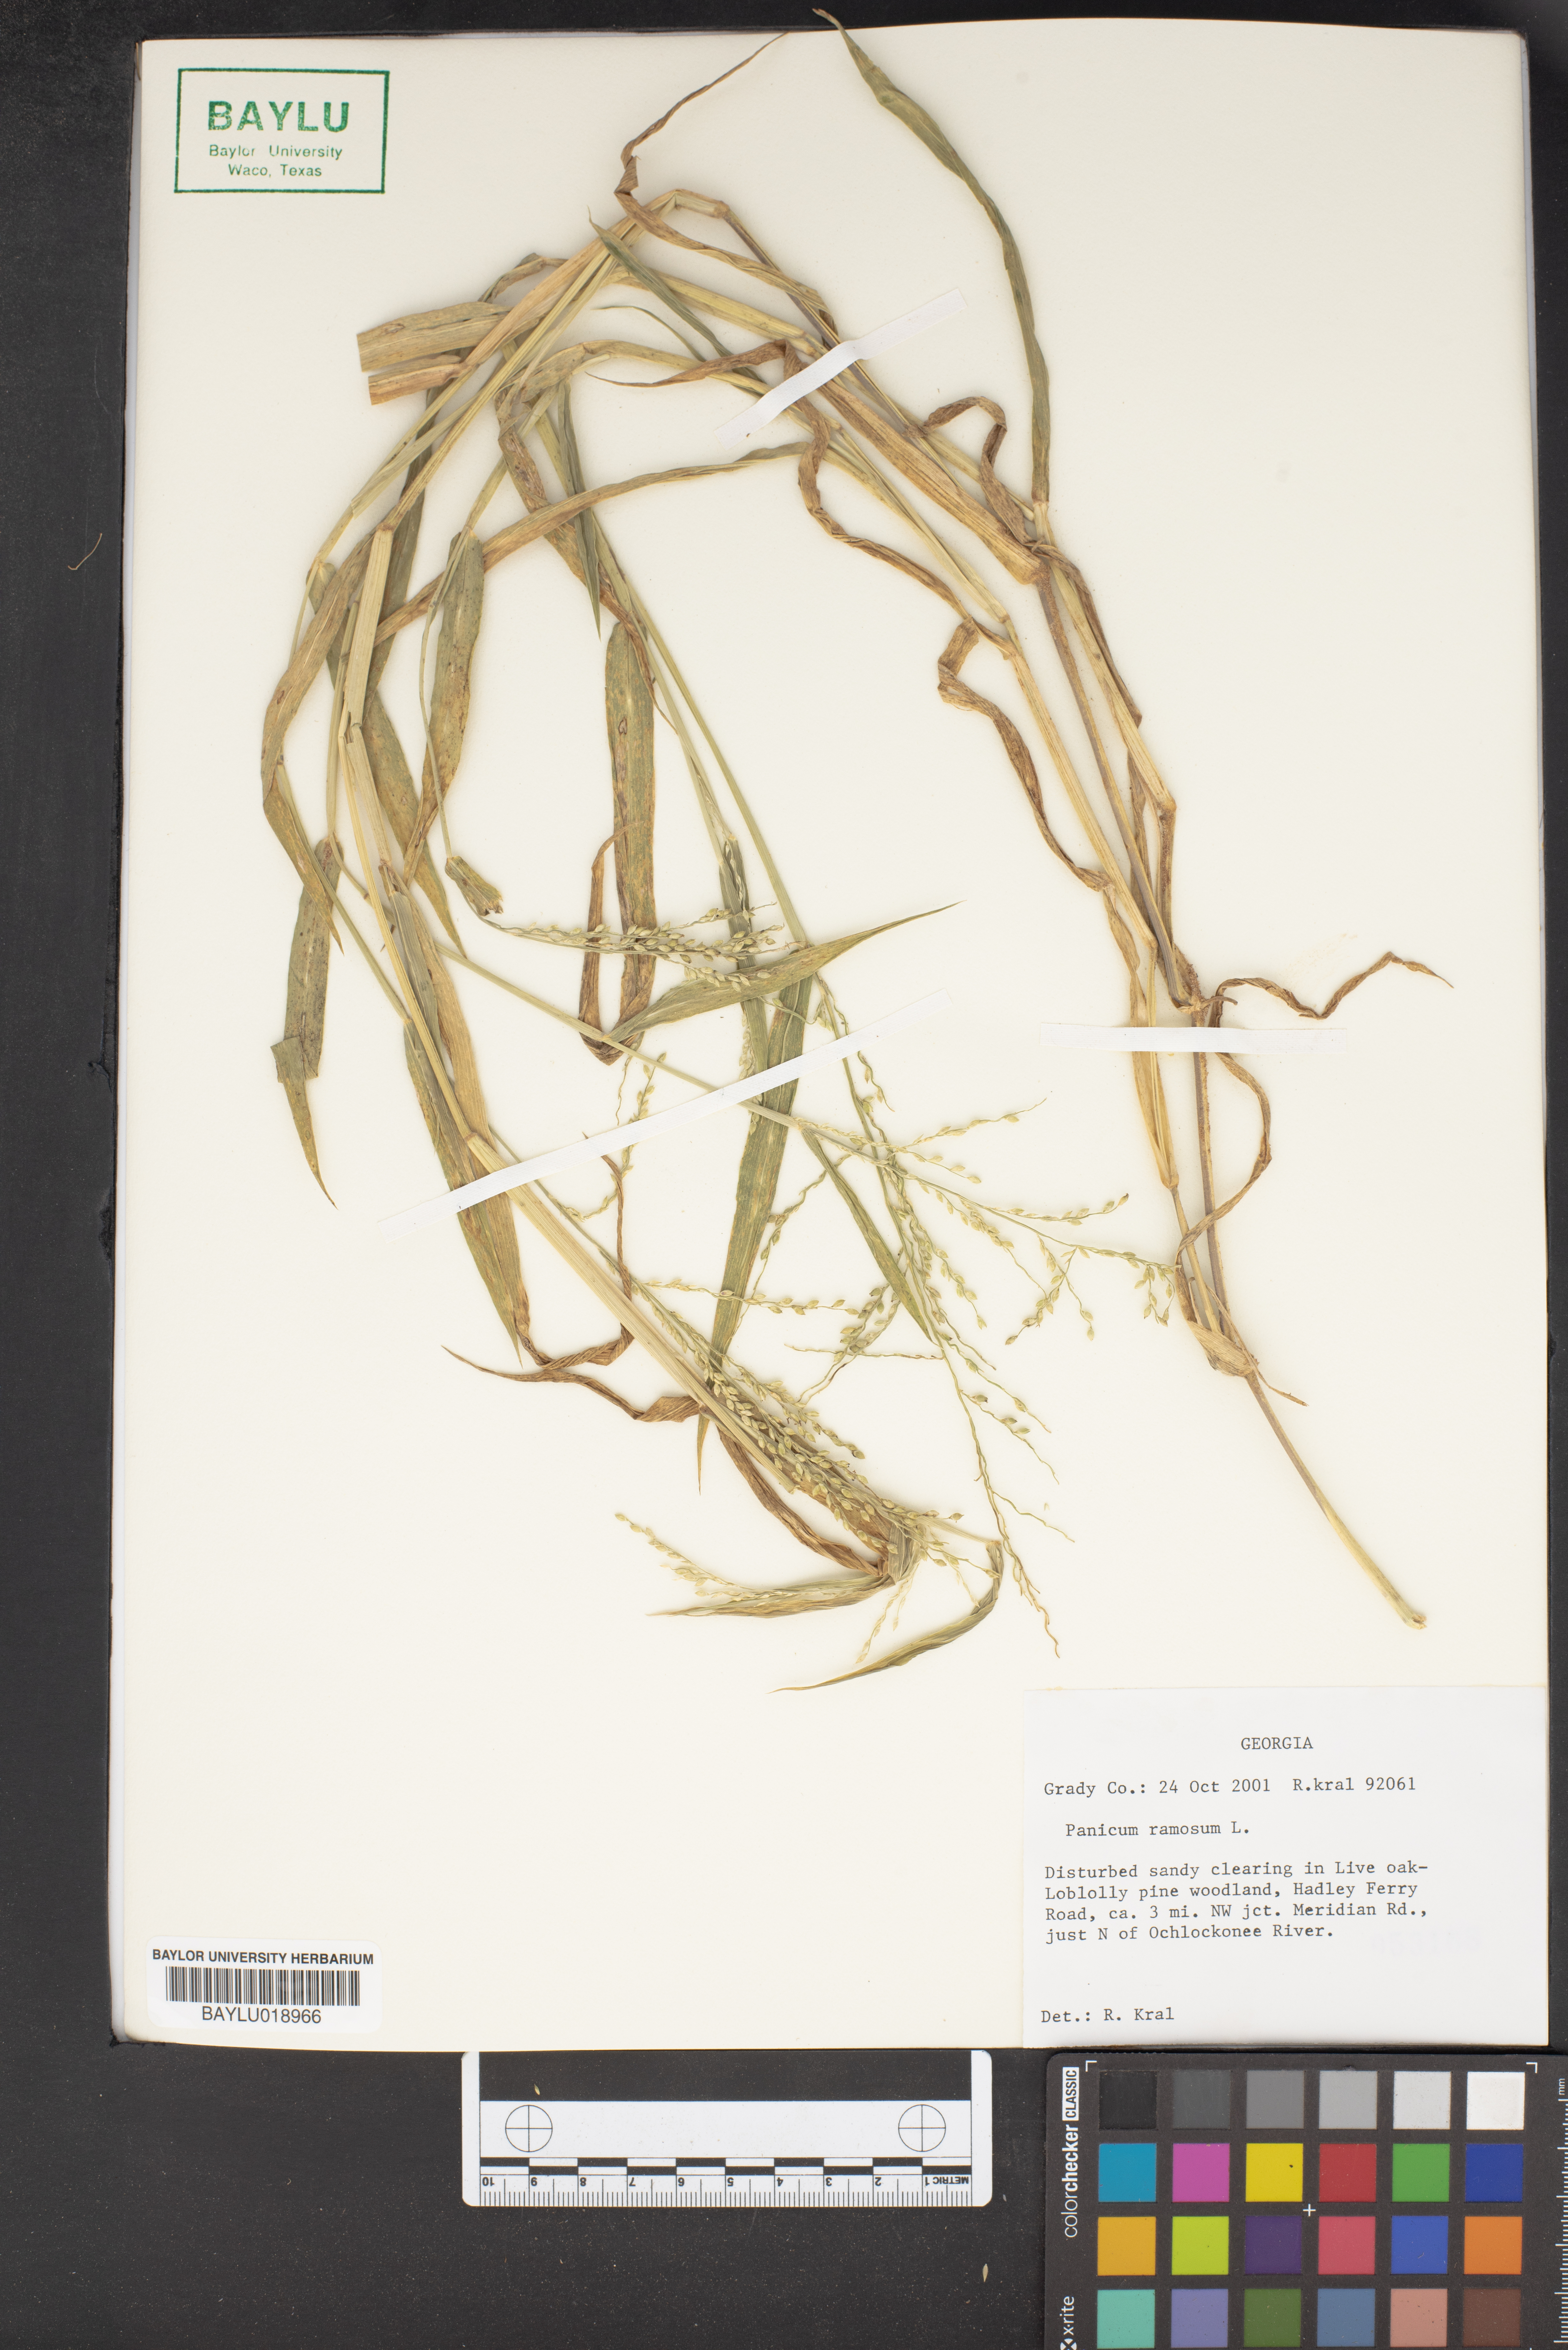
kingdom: Plantae
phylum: Tracheophyta
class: Liliopsida
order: Poales
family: Poaceae
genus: Urochloa
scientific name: Urochloa ramosa
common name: Browntop millet
